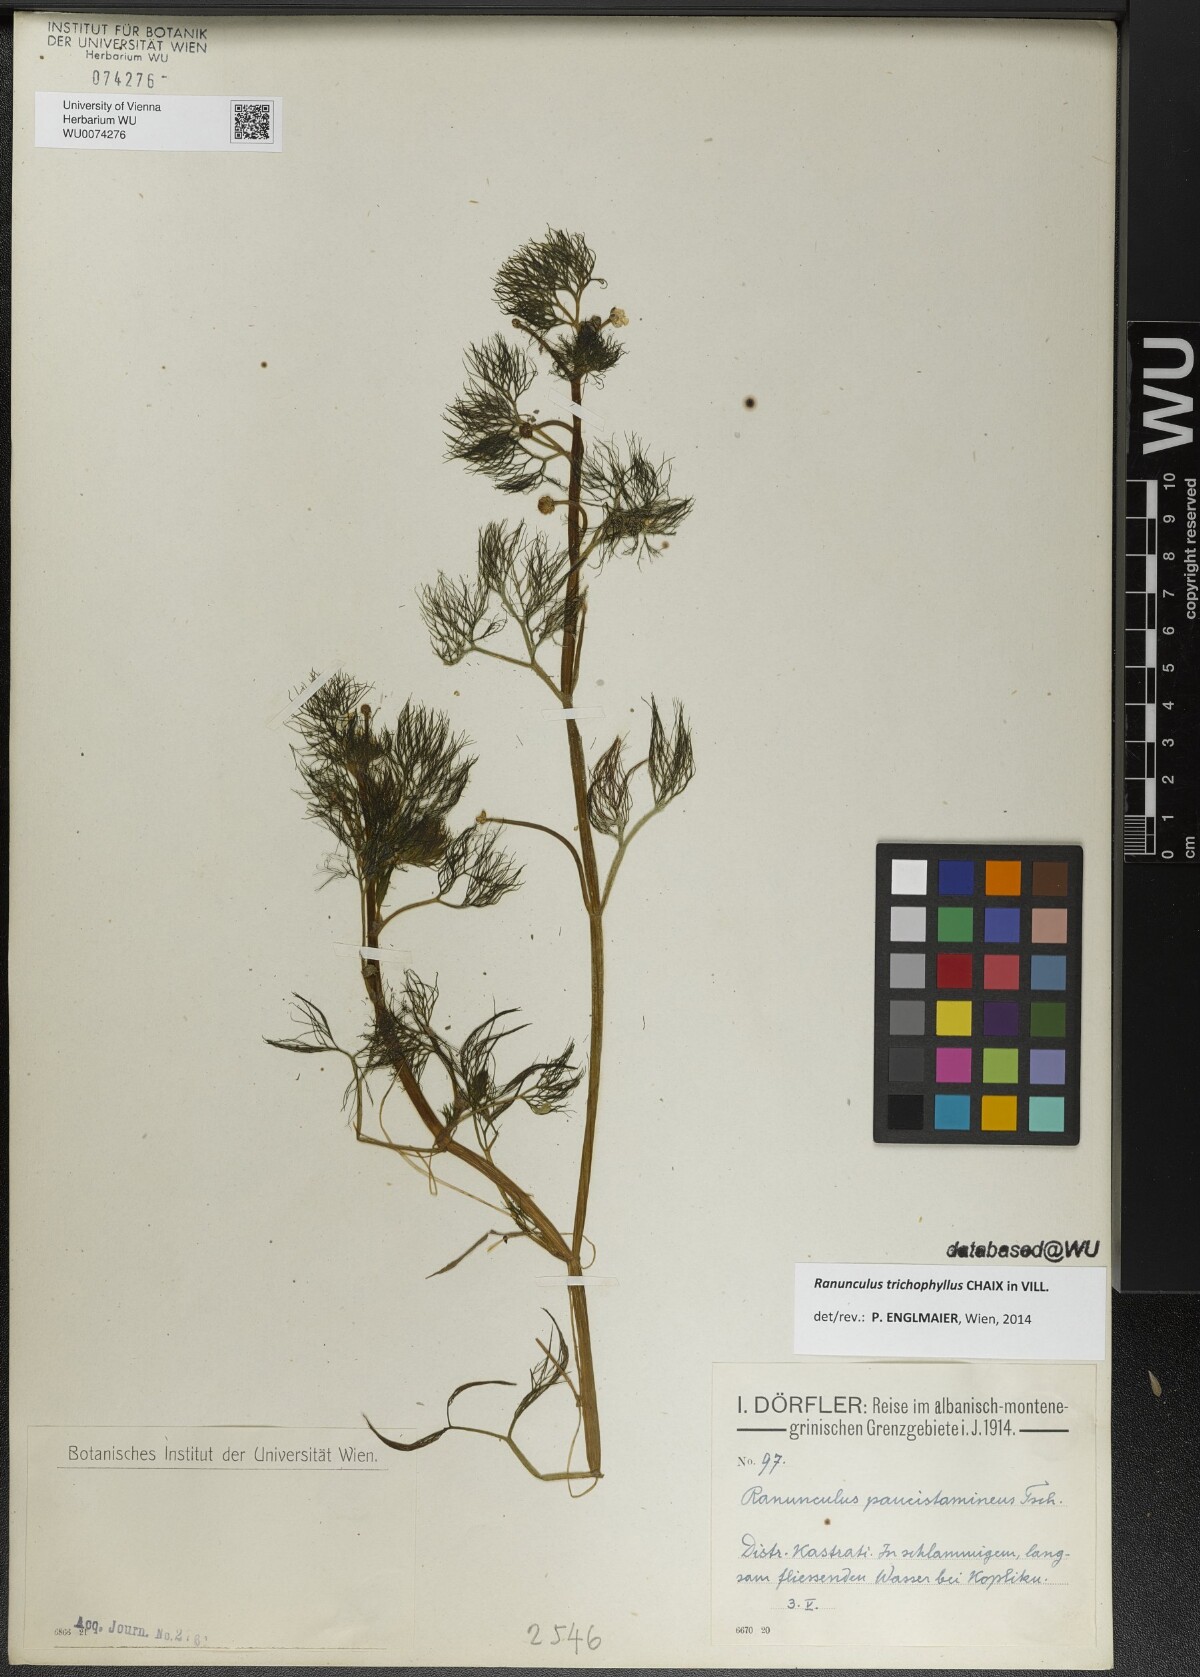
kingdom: Plantae
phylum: Tracheophyta
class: Magnoliopsida
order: Ranunculales
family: Ranunculaceae
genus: Ranunculus
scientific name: Ranunculus trichophyllus
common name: Thread-leaved water-crowfoot
